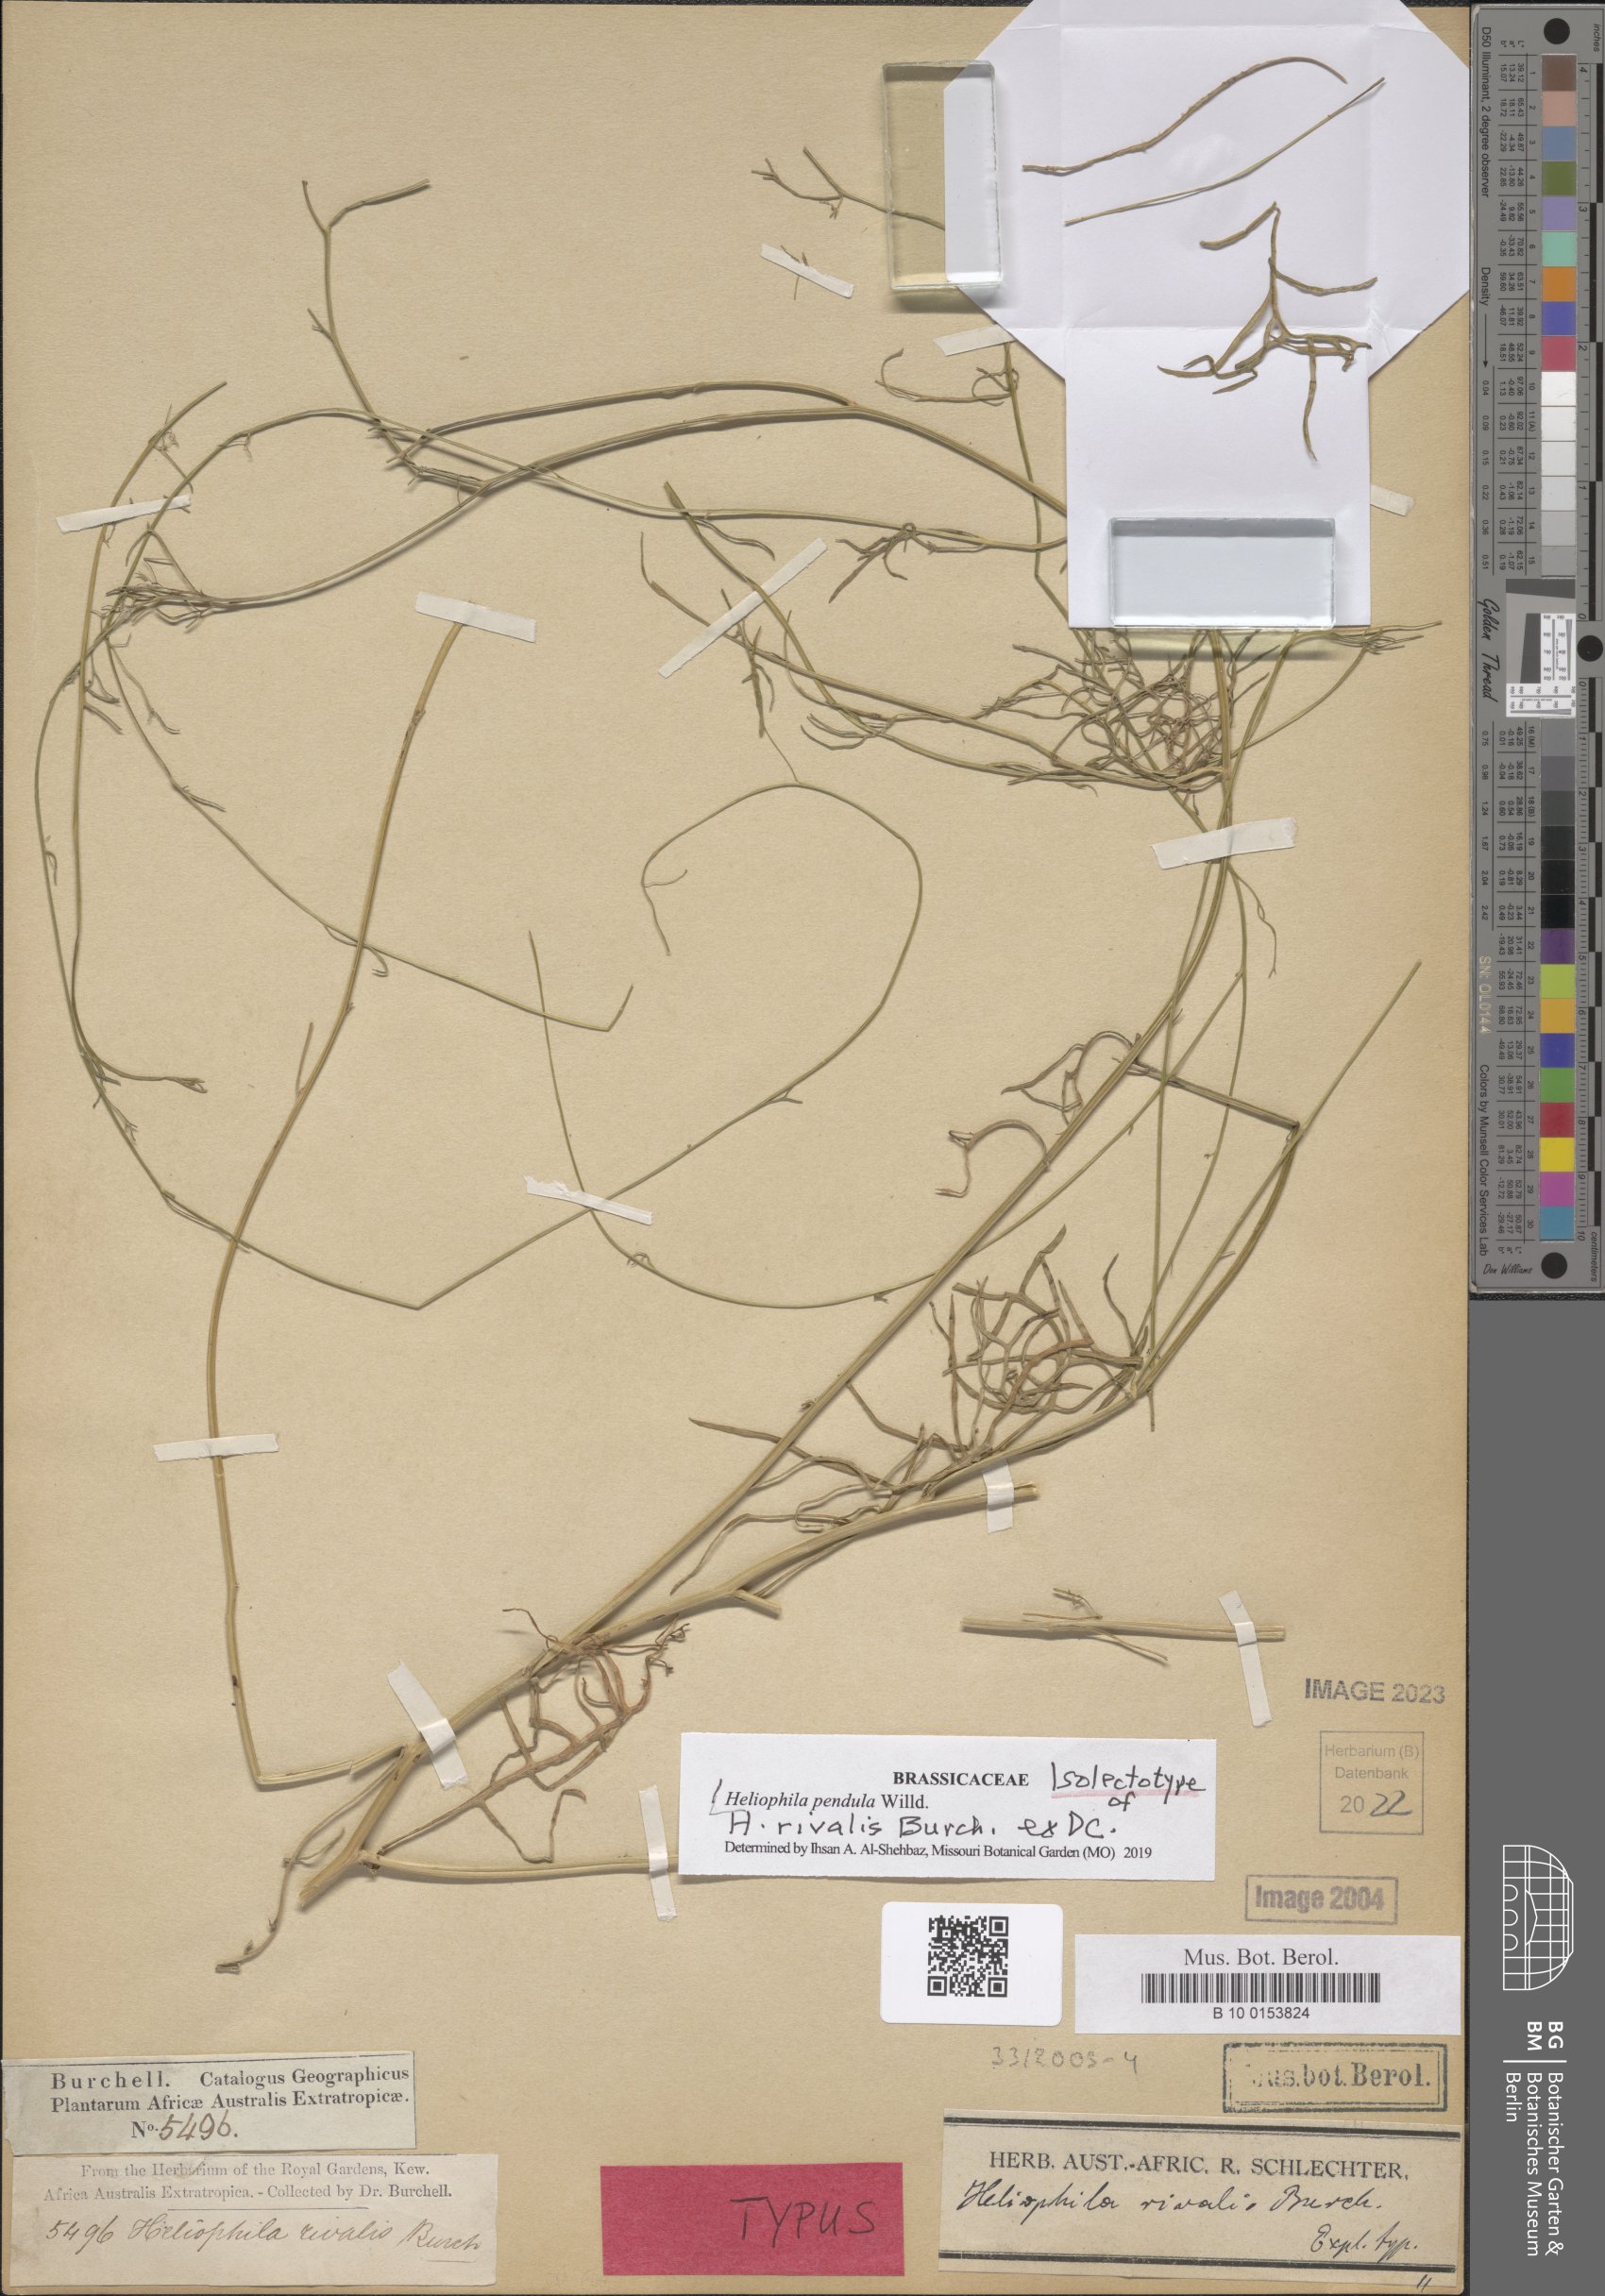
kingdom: Plantae
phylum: Tracheophyta
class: Magnoliopsida
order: Brassicales
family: Brassicaceae
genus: Heliophila
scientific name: Heliophila pendula
